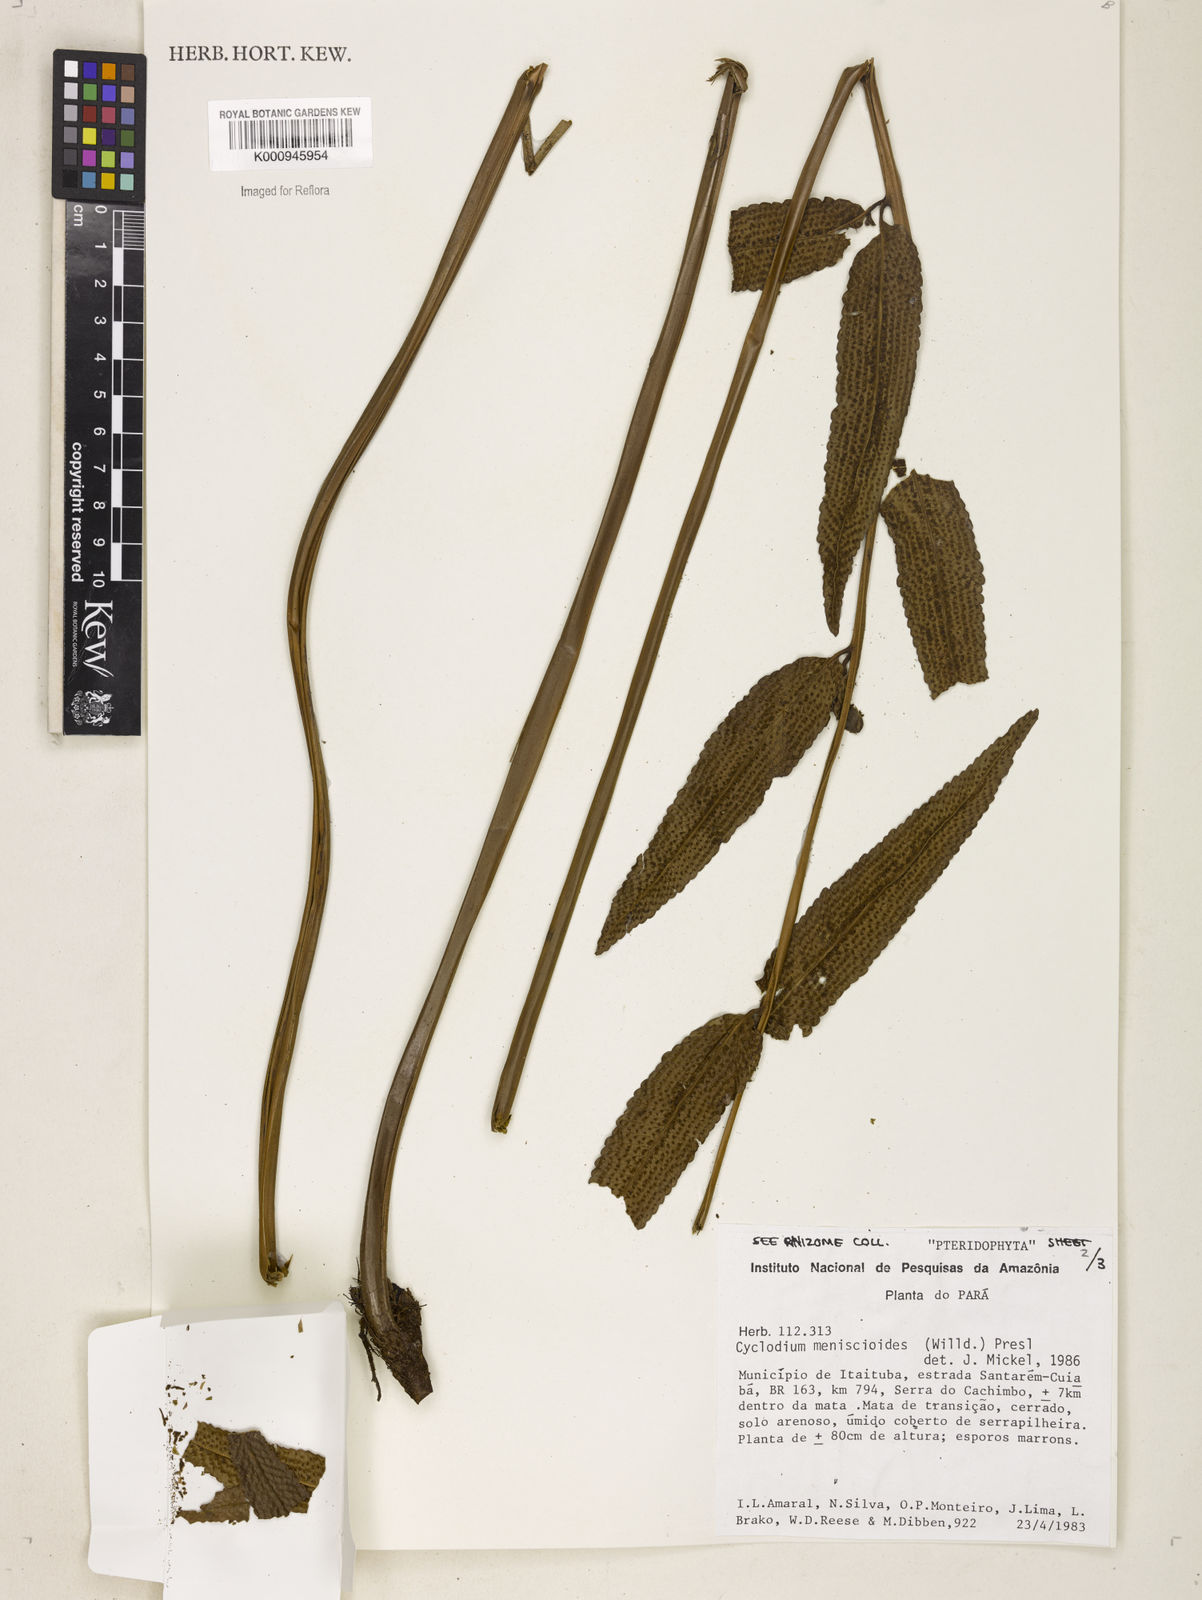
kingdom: Plantae
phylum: Tracheophyta
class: Polypodiopsida
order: Polypodiales
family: Dryopteridaceae
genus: Cyclodium
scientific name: Cyclodium meniscioides
